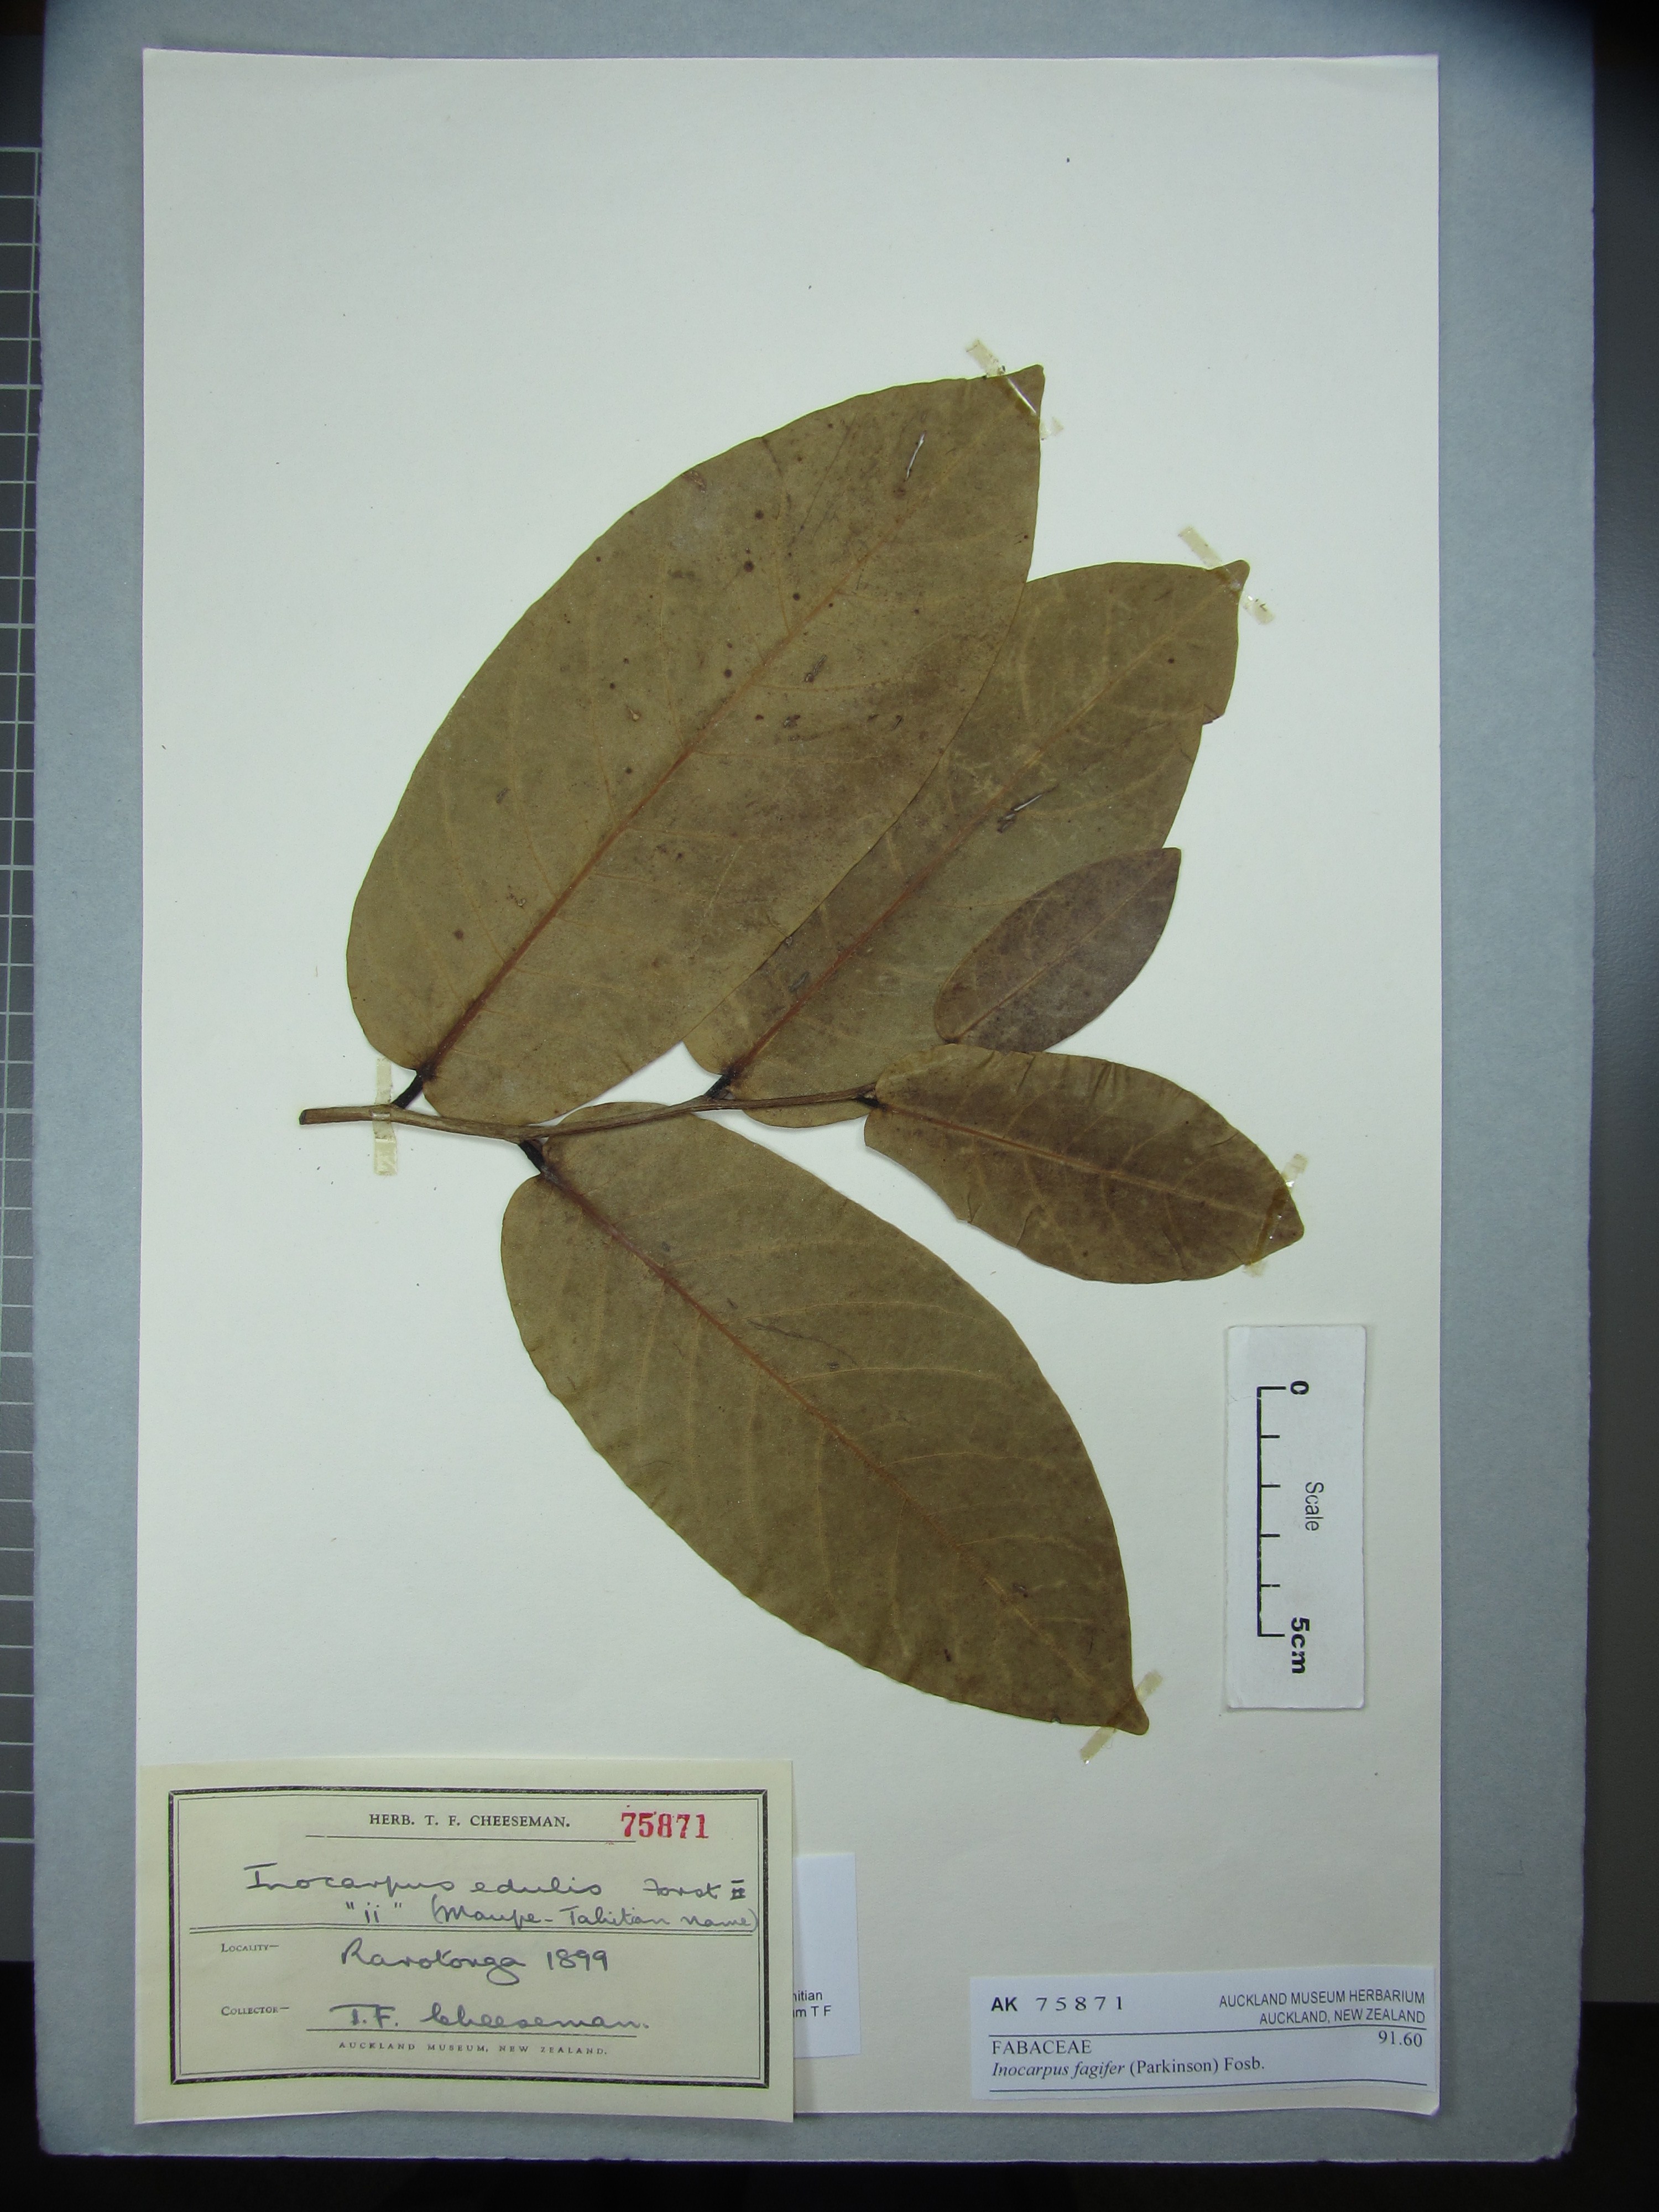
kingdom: Plantae
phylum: Tracheophyta
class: Magnoliopsida
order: Fabales
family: Fabaceae
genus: Inocarpus
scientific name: Inocarpus fagifer
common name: Polynesian chestnut
